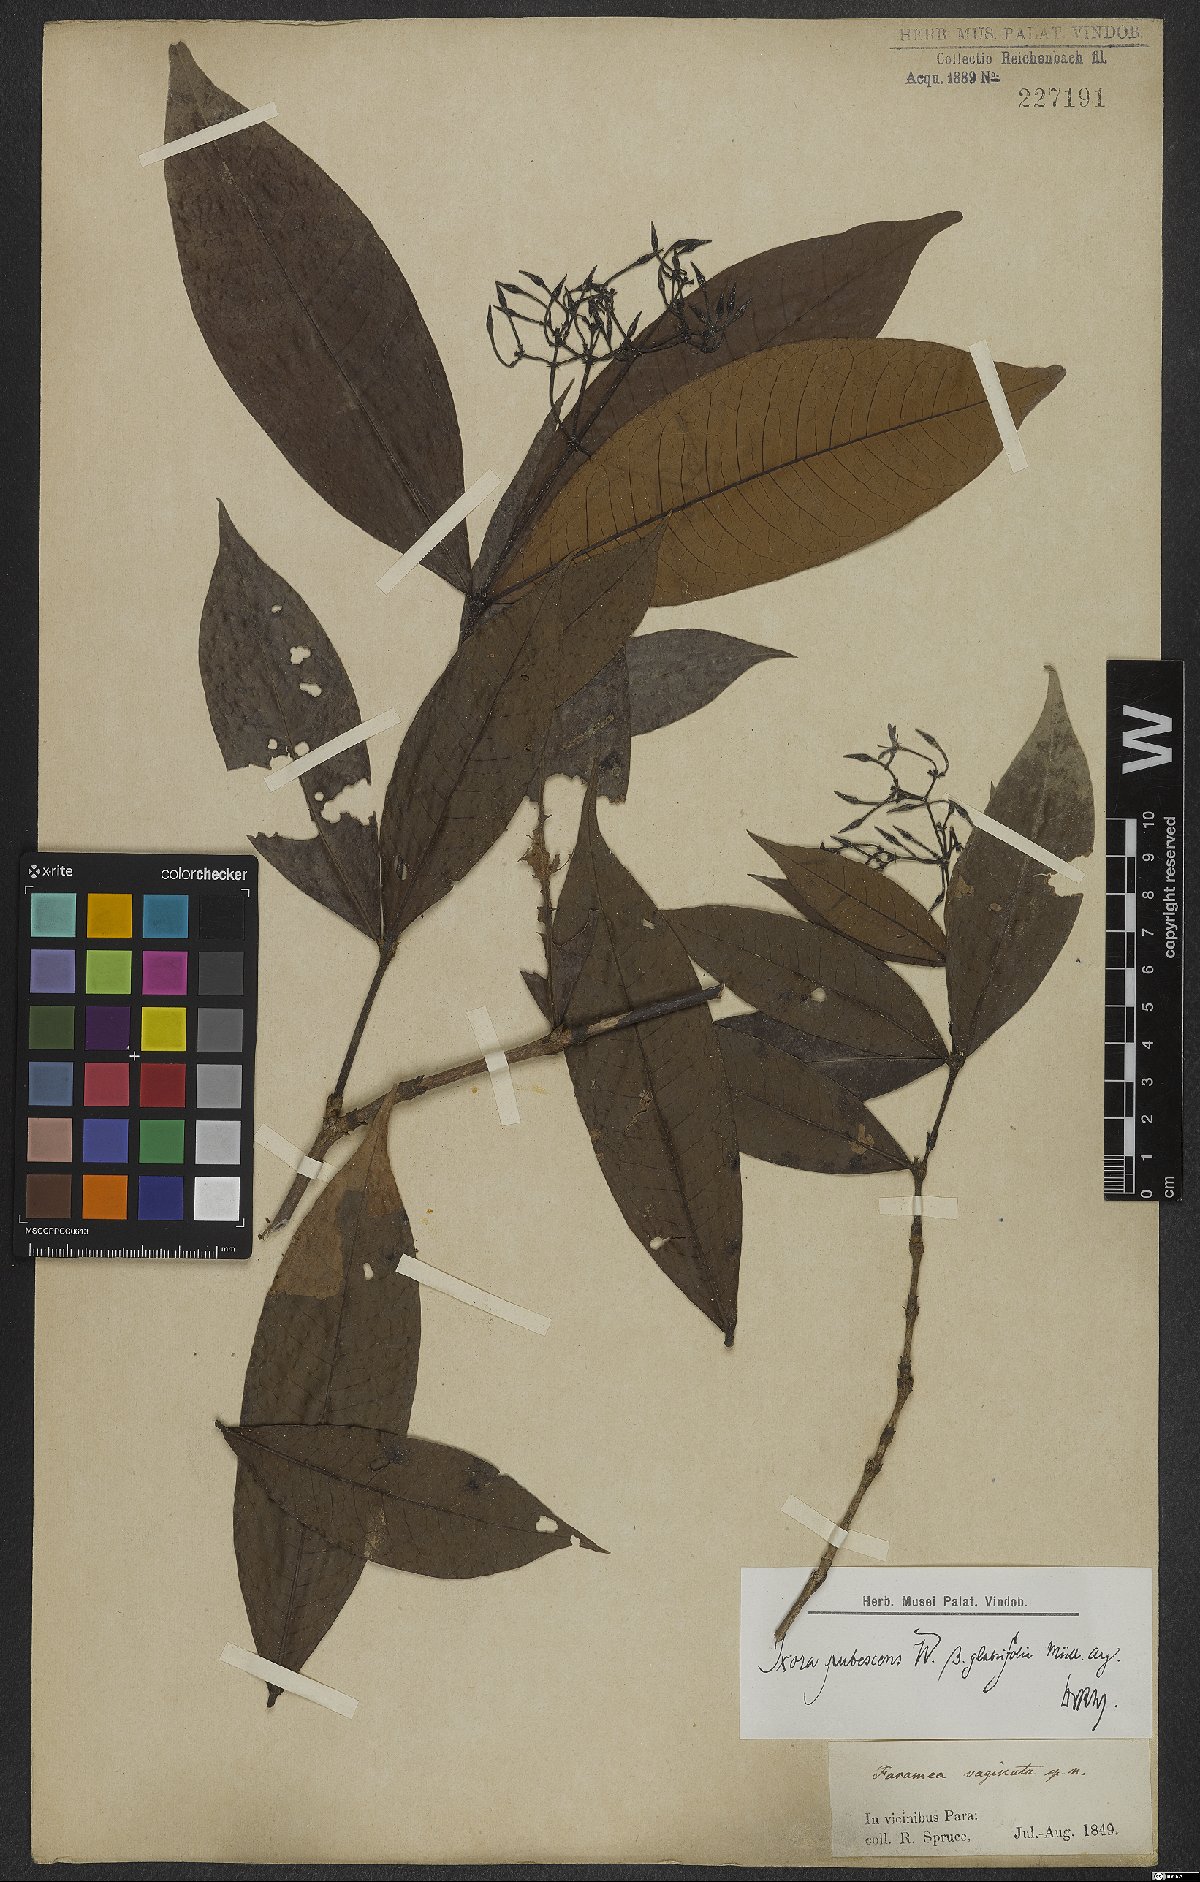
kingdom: Plantae
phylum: Tracheophyta
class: Magnoliopsida
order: Gentianales
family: Rubiaceae
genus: Ixora
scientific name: Ixora pubescens
